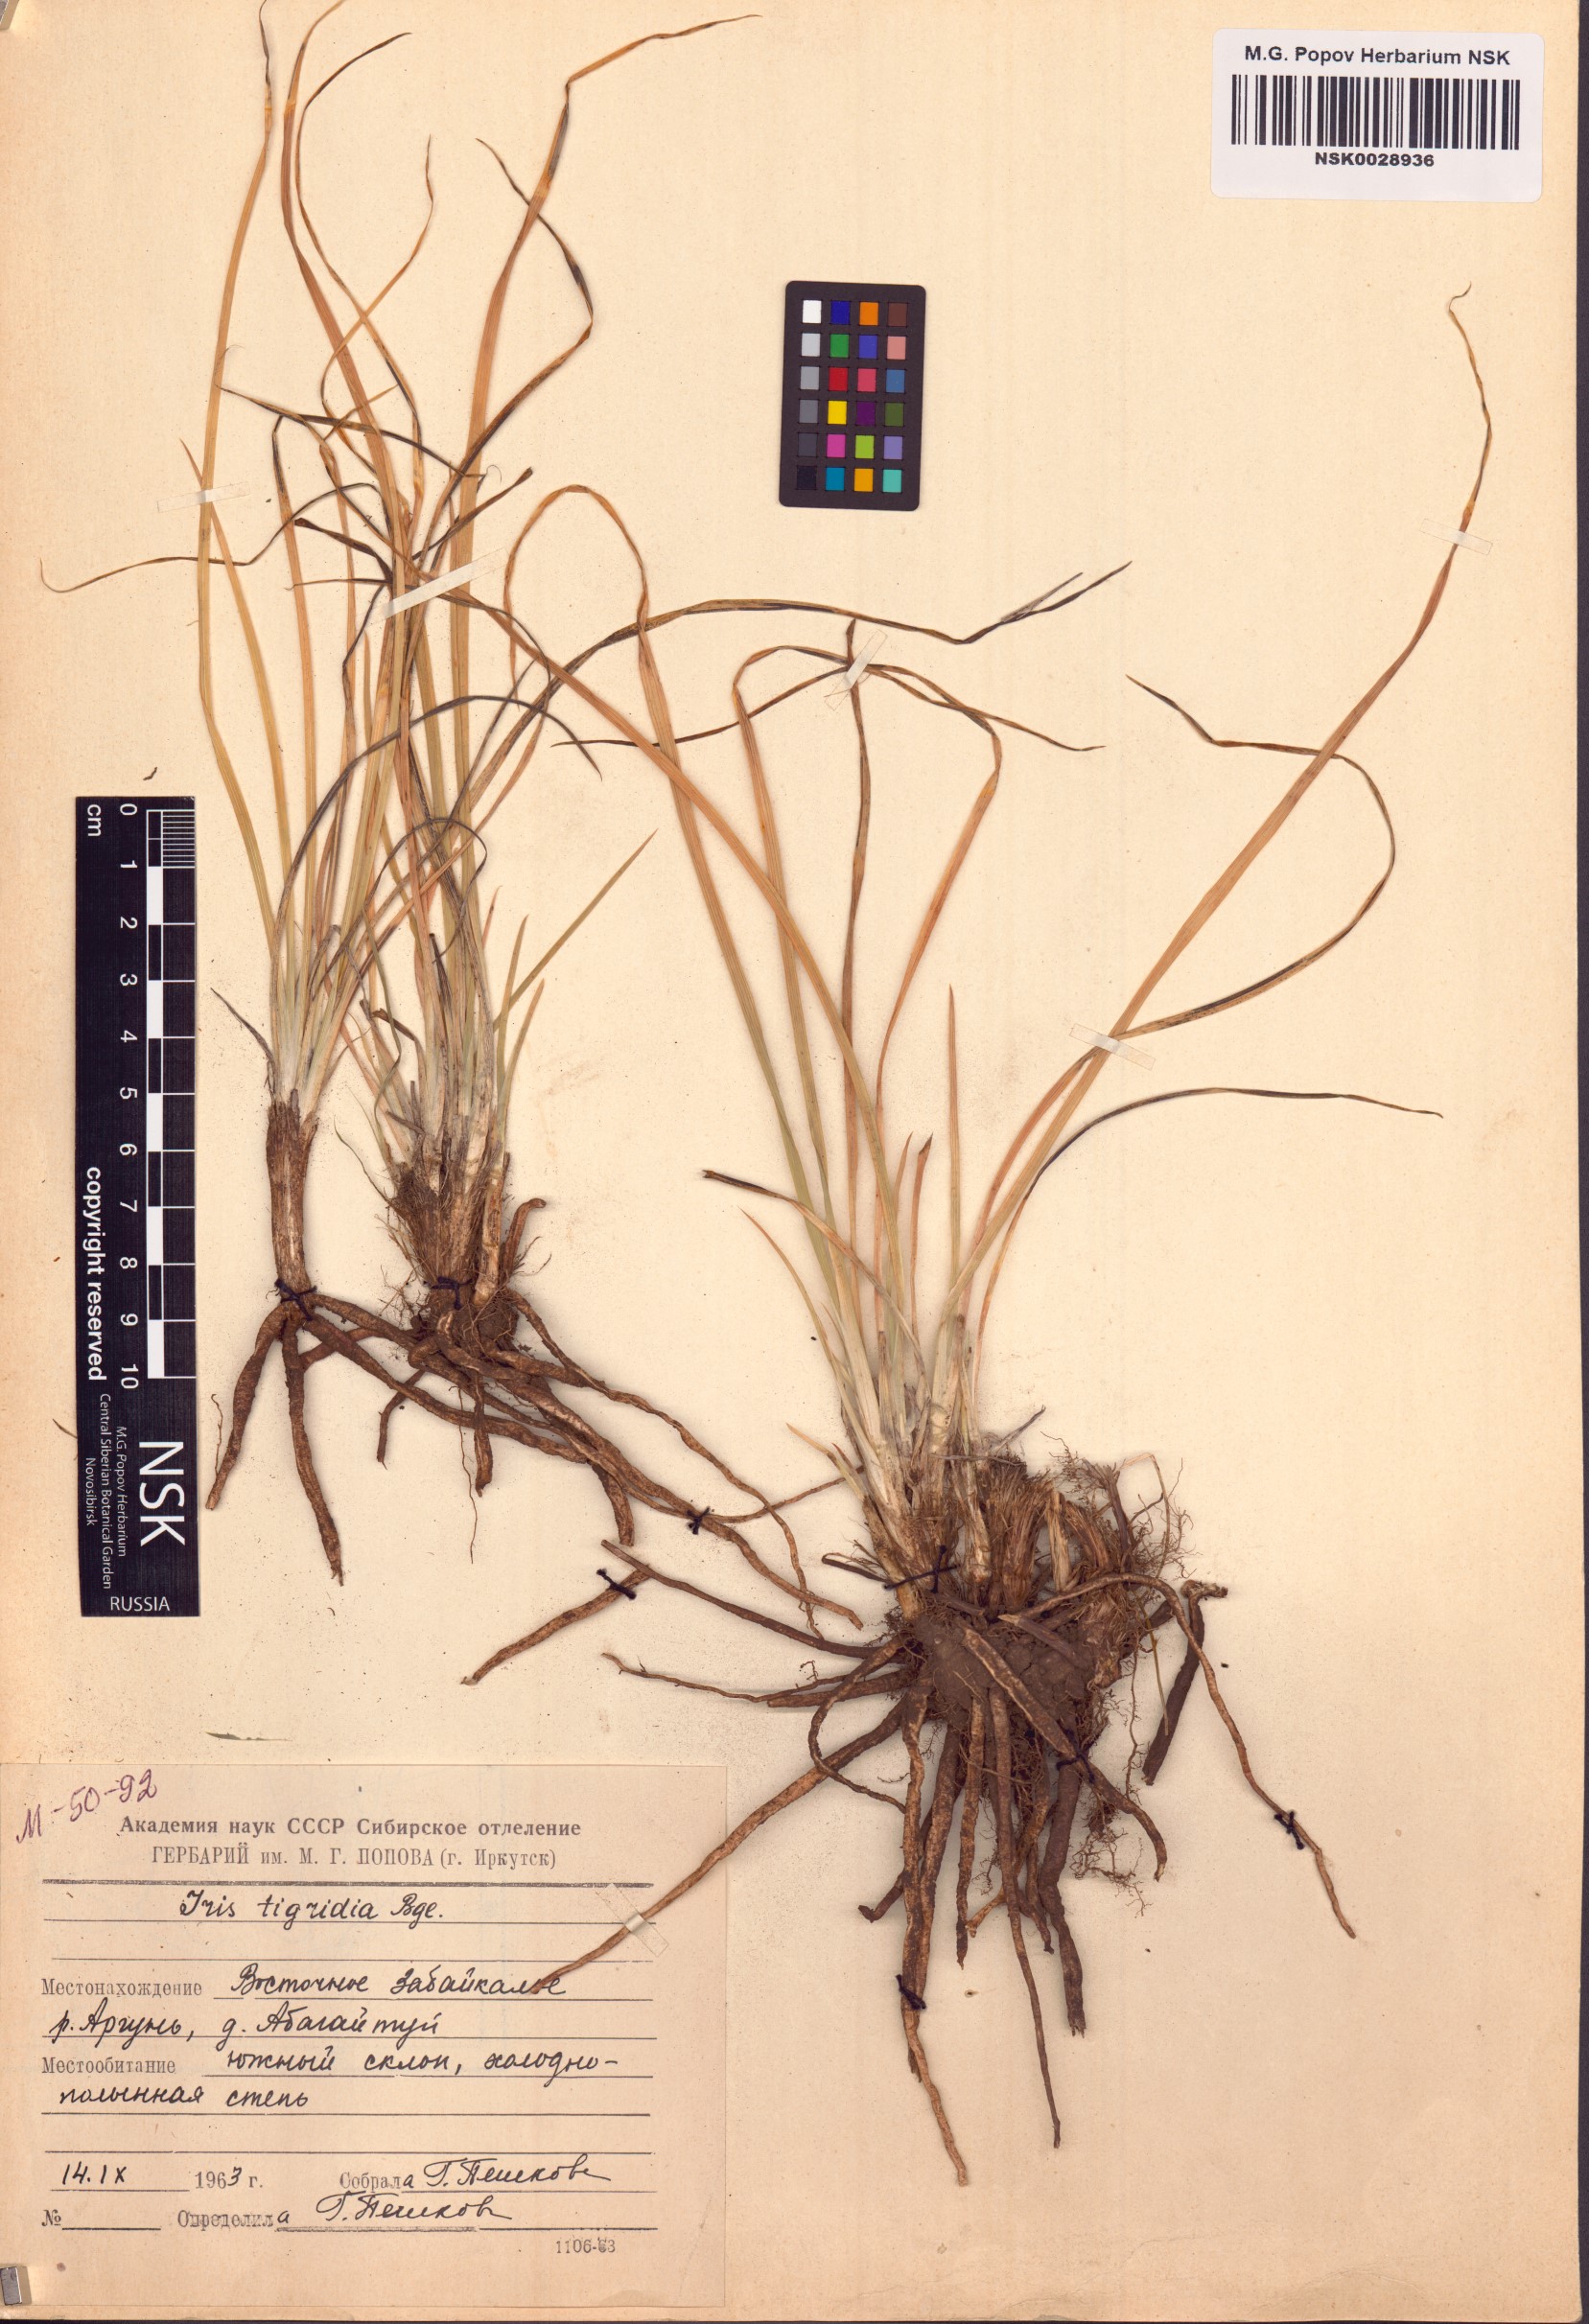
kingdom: Plantae
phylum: Tracheophyta
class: Liliopsida
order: Asparagales
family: Iridaceae
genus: Iris
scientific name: Iris tigridia
